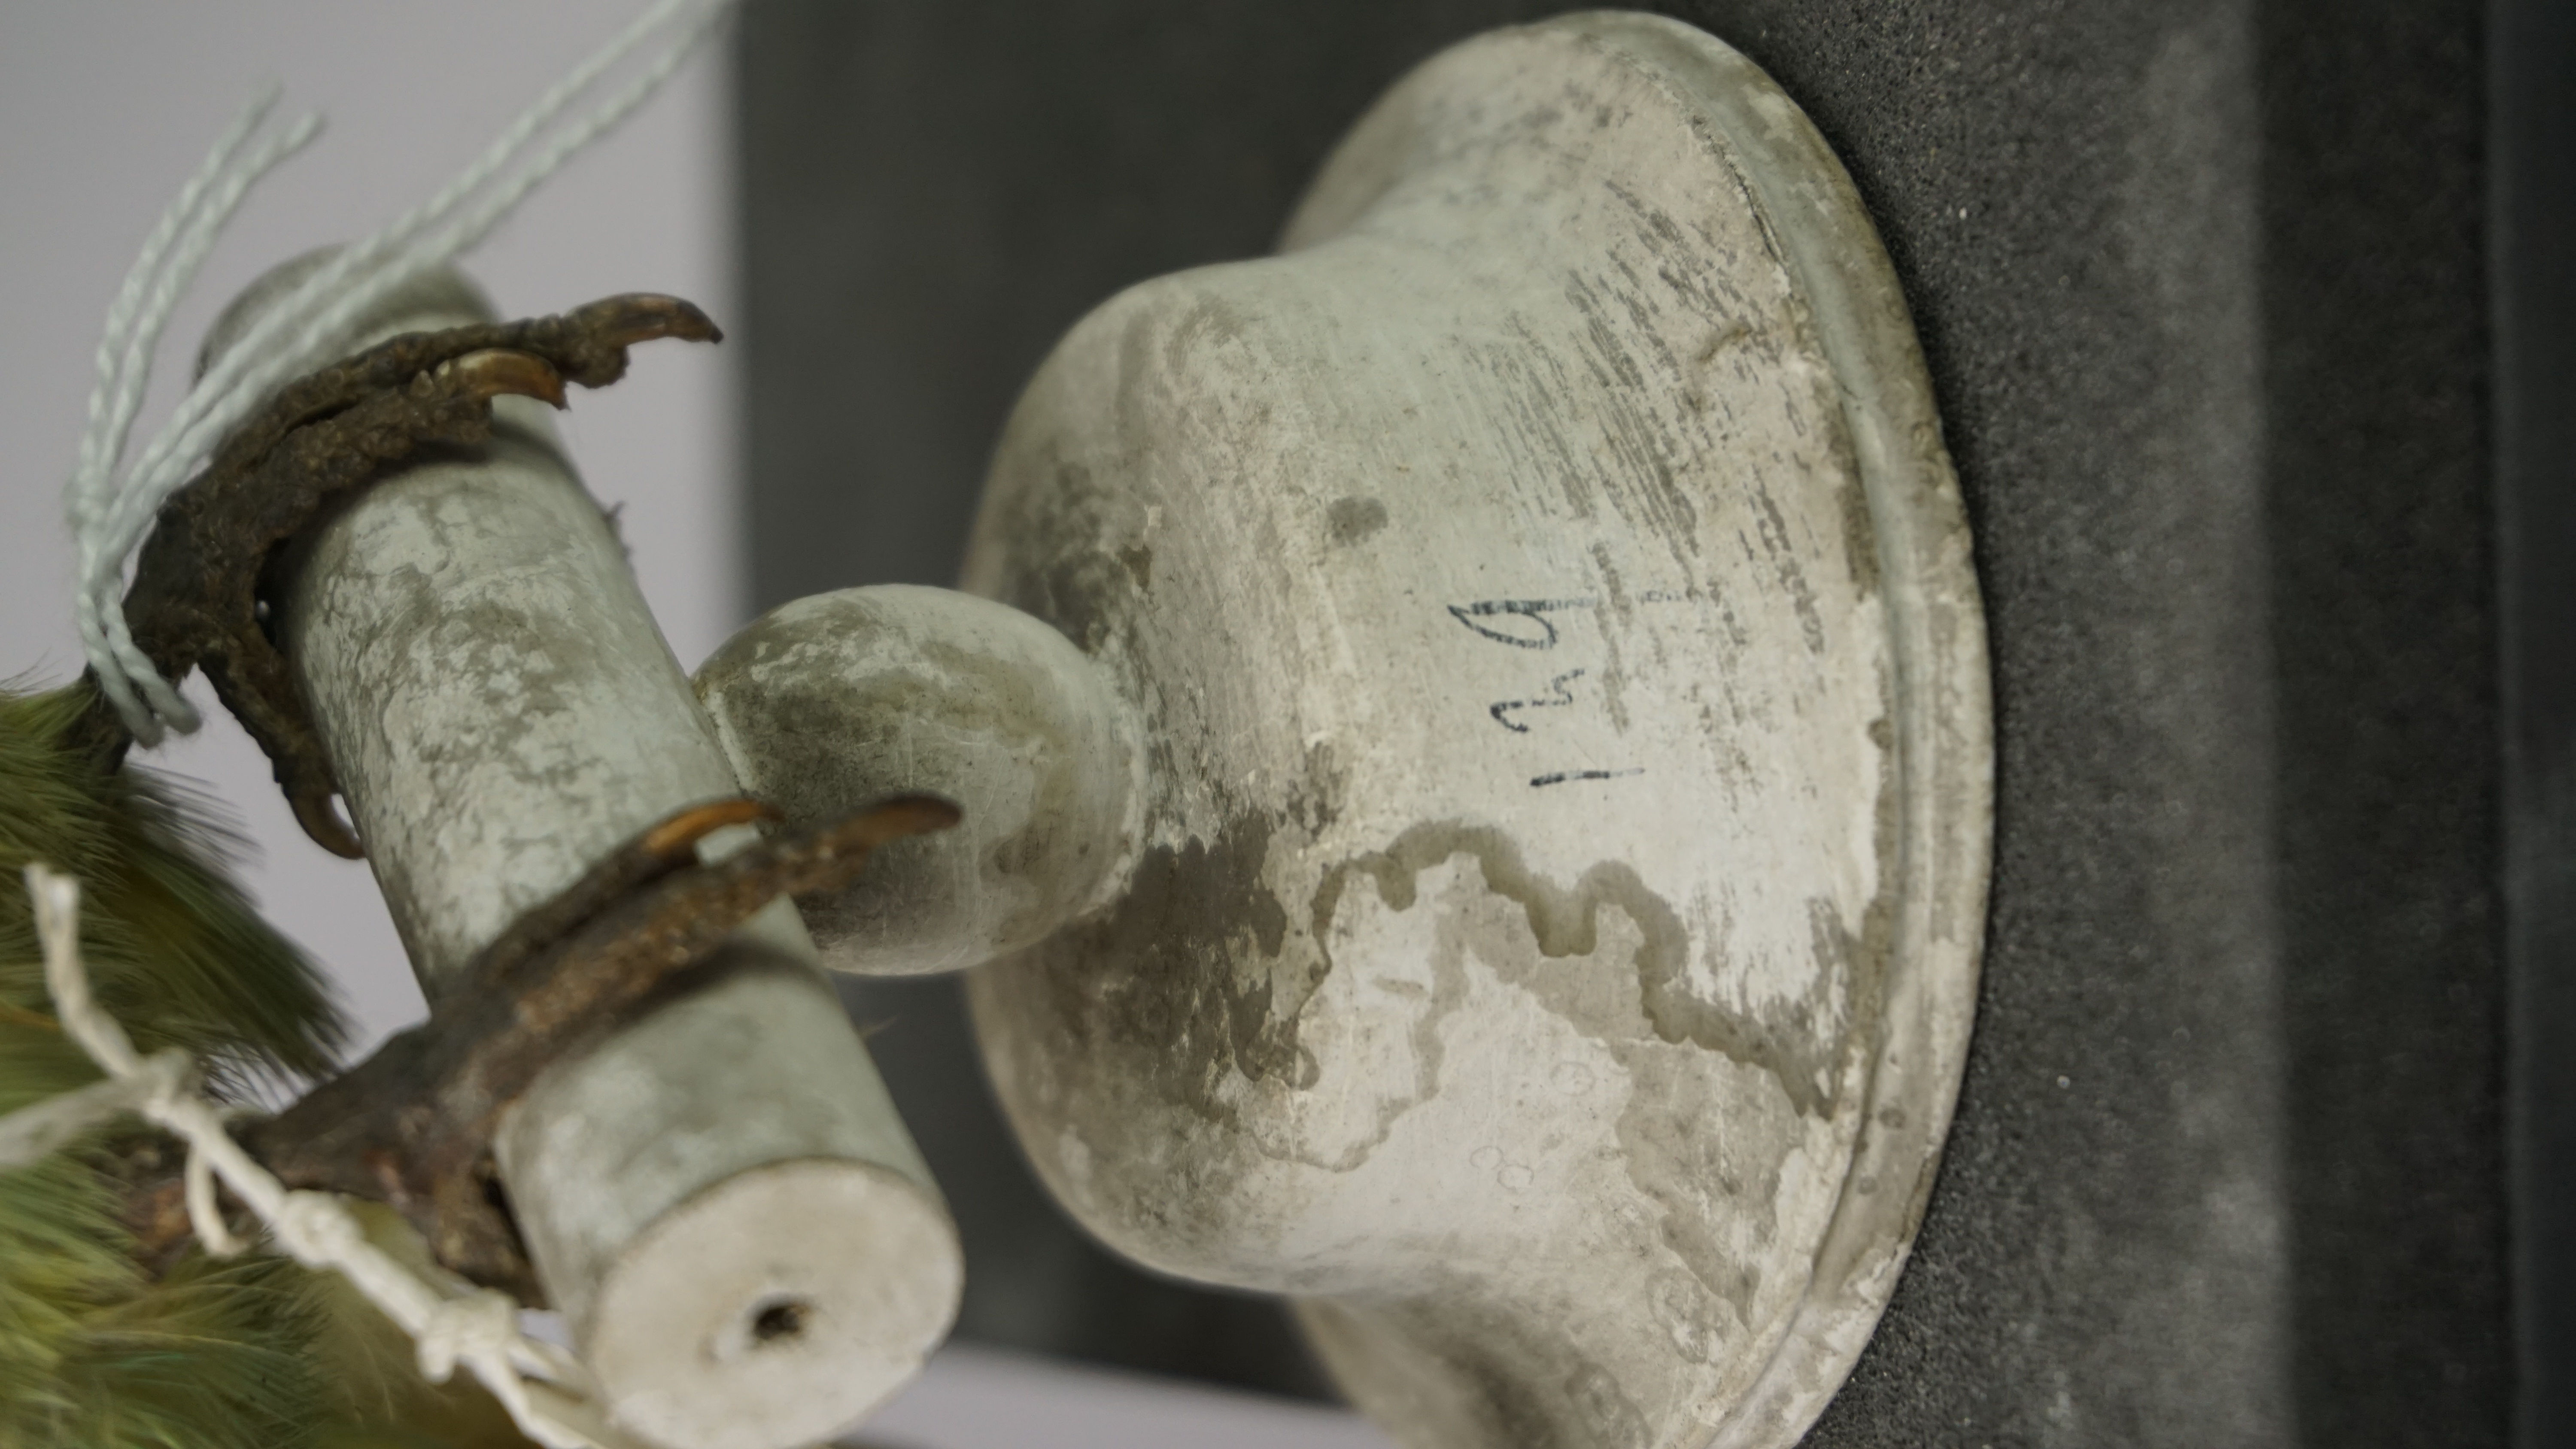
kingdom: Animalia
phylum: Chordata
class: Aves
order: Psittaciformes
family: Psittacidae
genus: Psittacula
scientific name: Psittacula columboides
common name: Blue-winged parakeet
